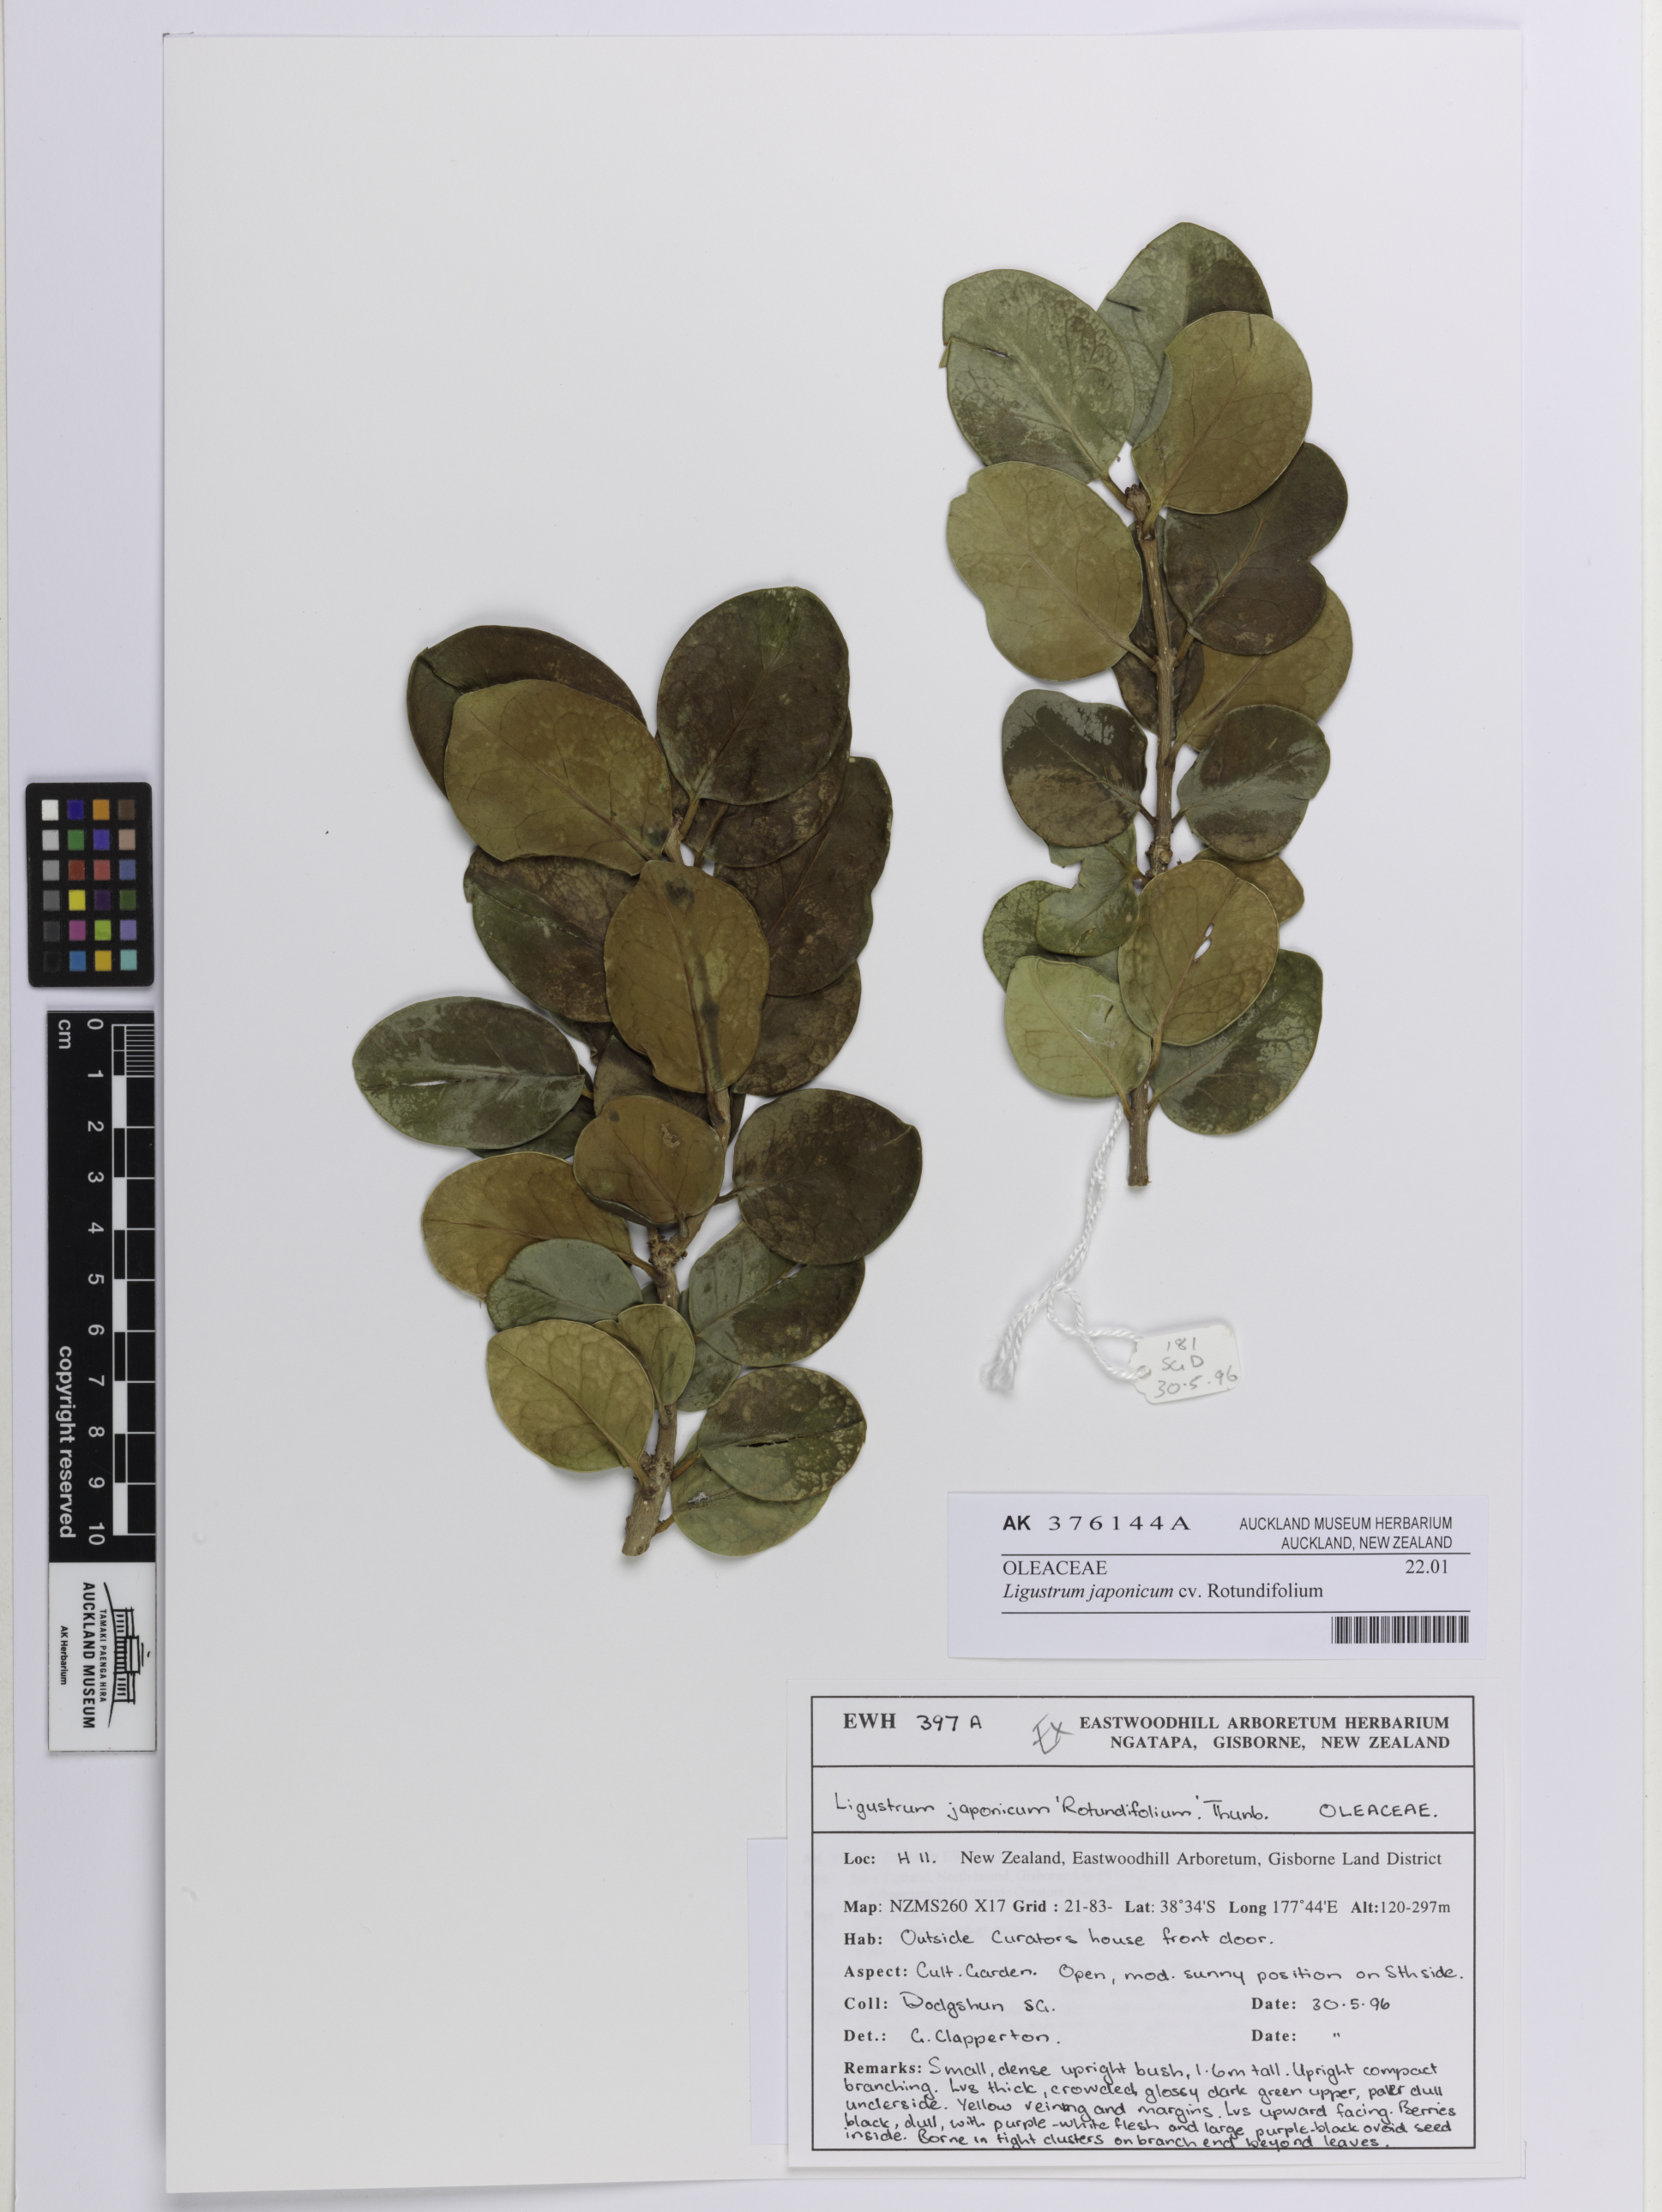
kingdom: Plantae
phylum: Tracheophyta
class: Magnoliopsida
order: Lamiales
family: Oleaceae
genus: Ligustrum
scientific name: Ligustrum japonicum
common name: Japanese privet
